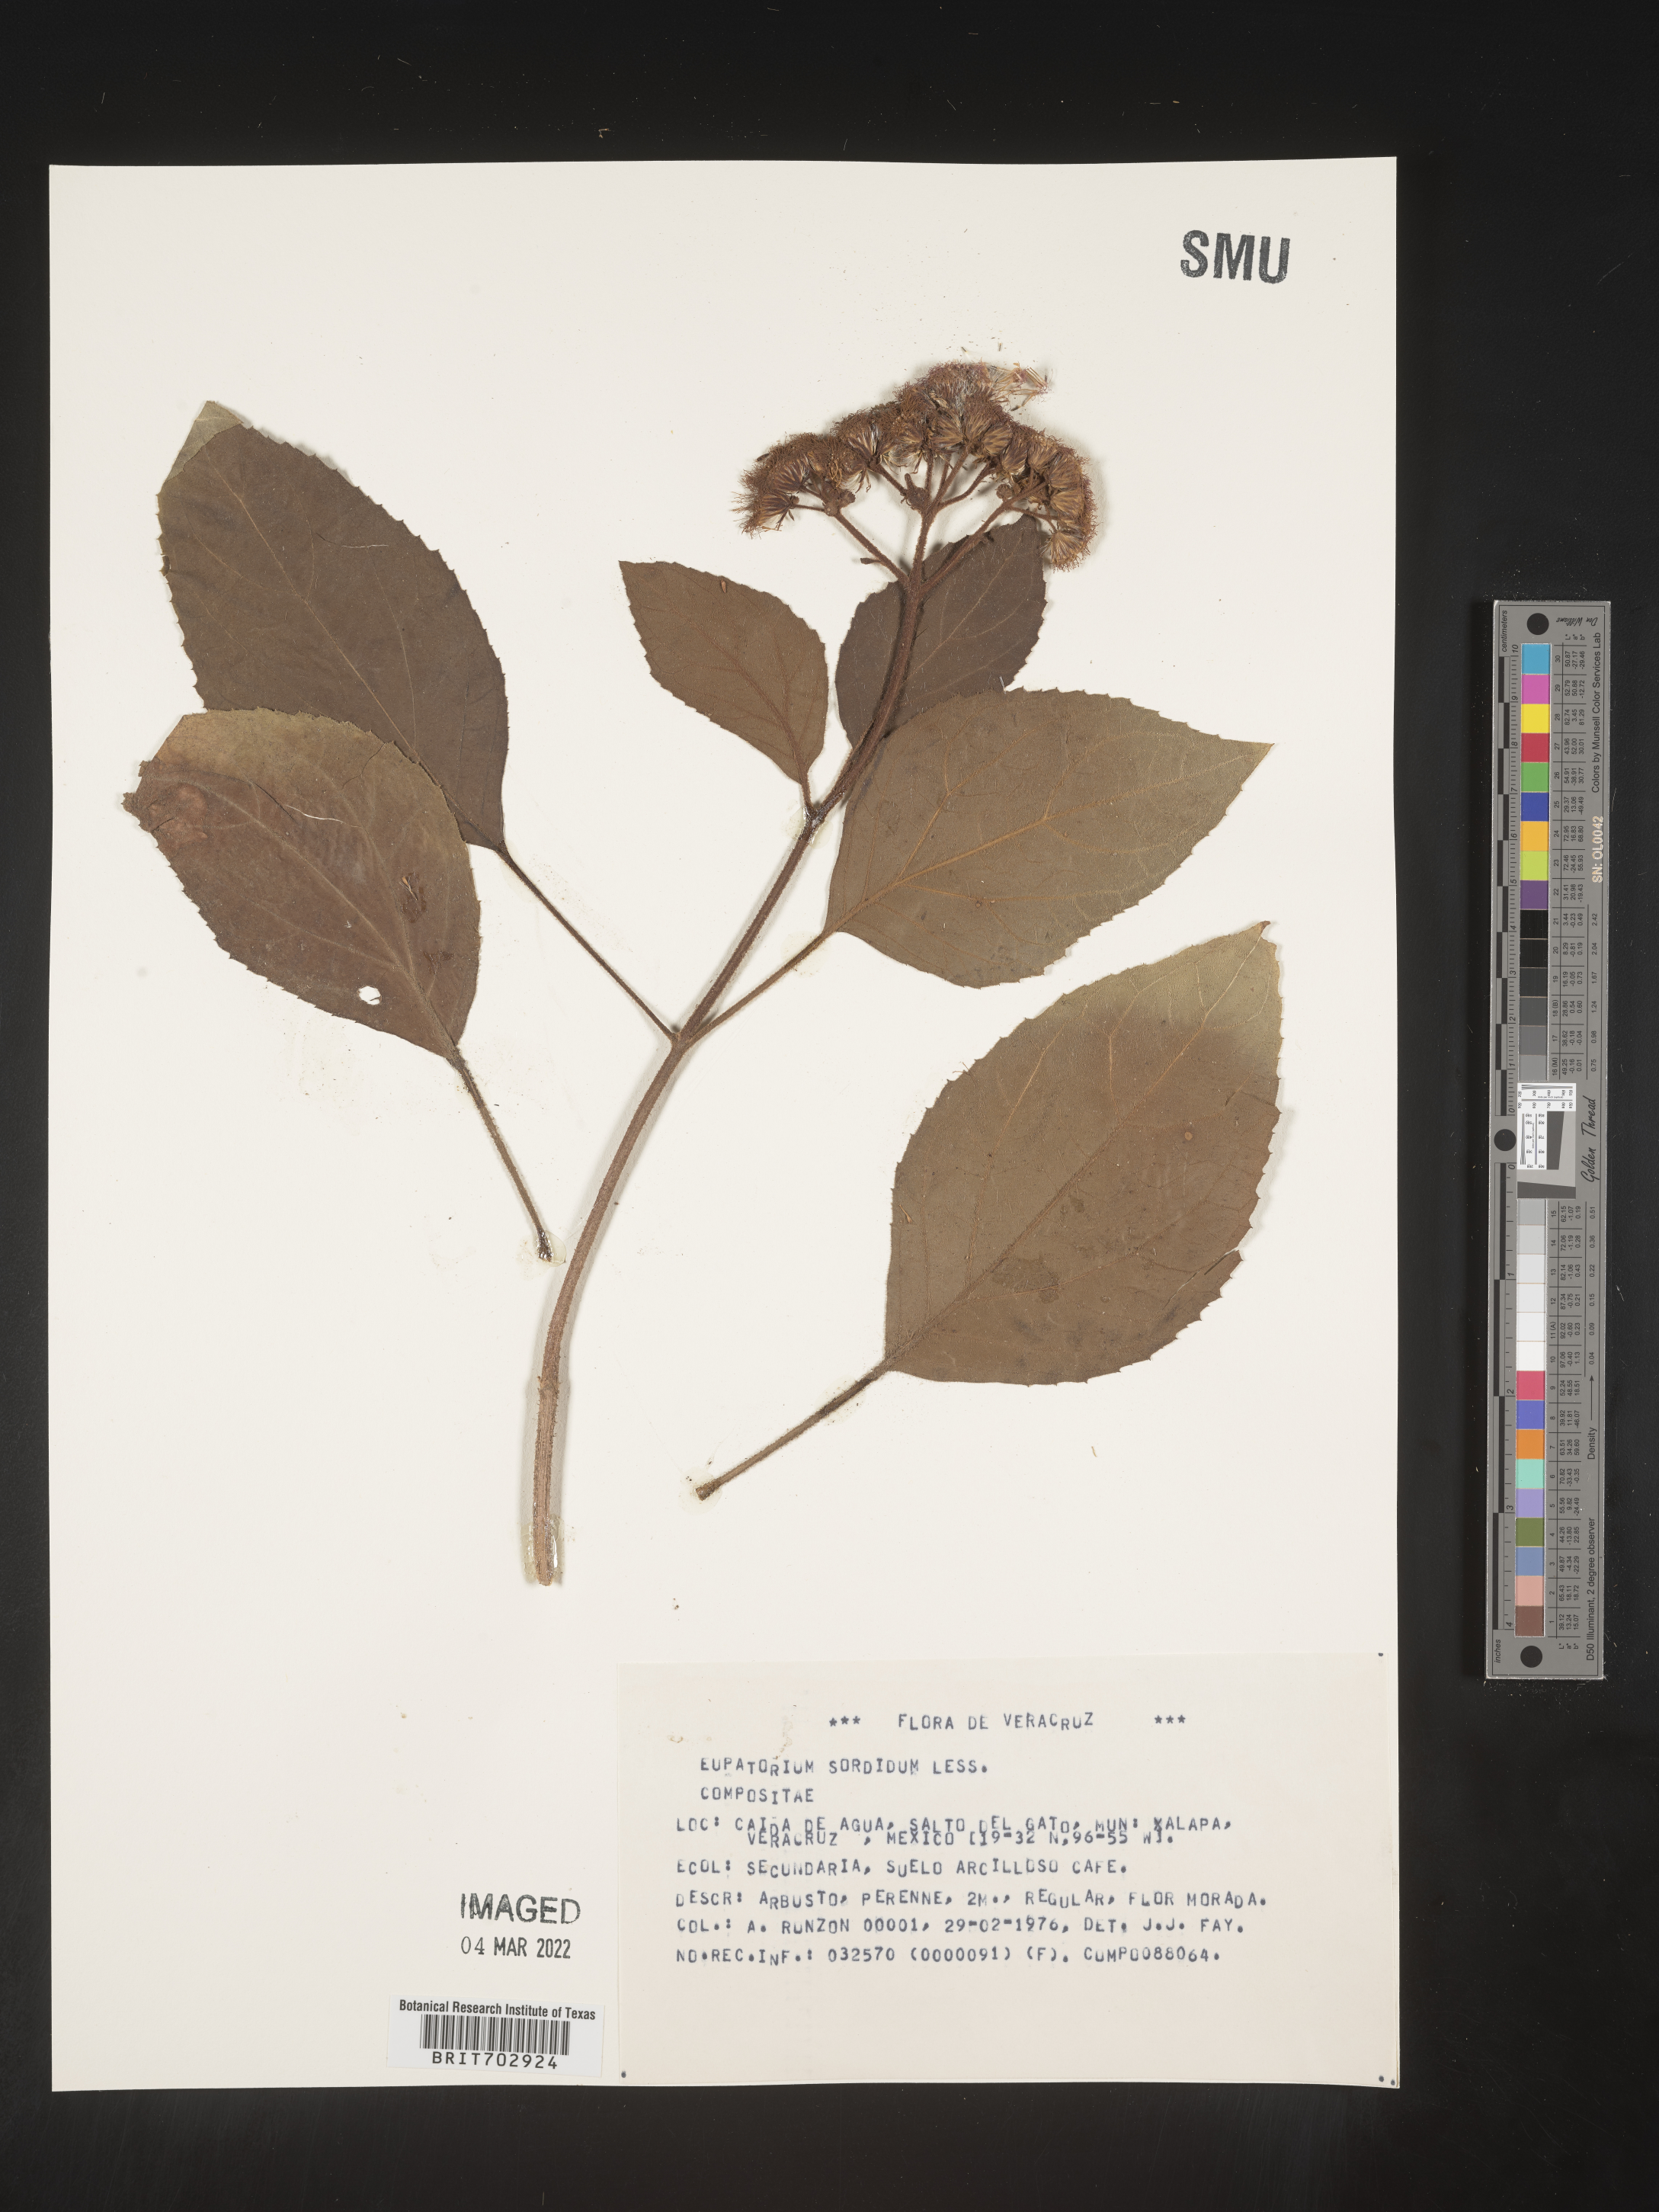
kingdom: Plantae
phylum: Tracheophyta
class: Magnoliopsida
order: Asterales
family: Asteraceae
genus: Eupatorium
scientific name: Eupatorium
